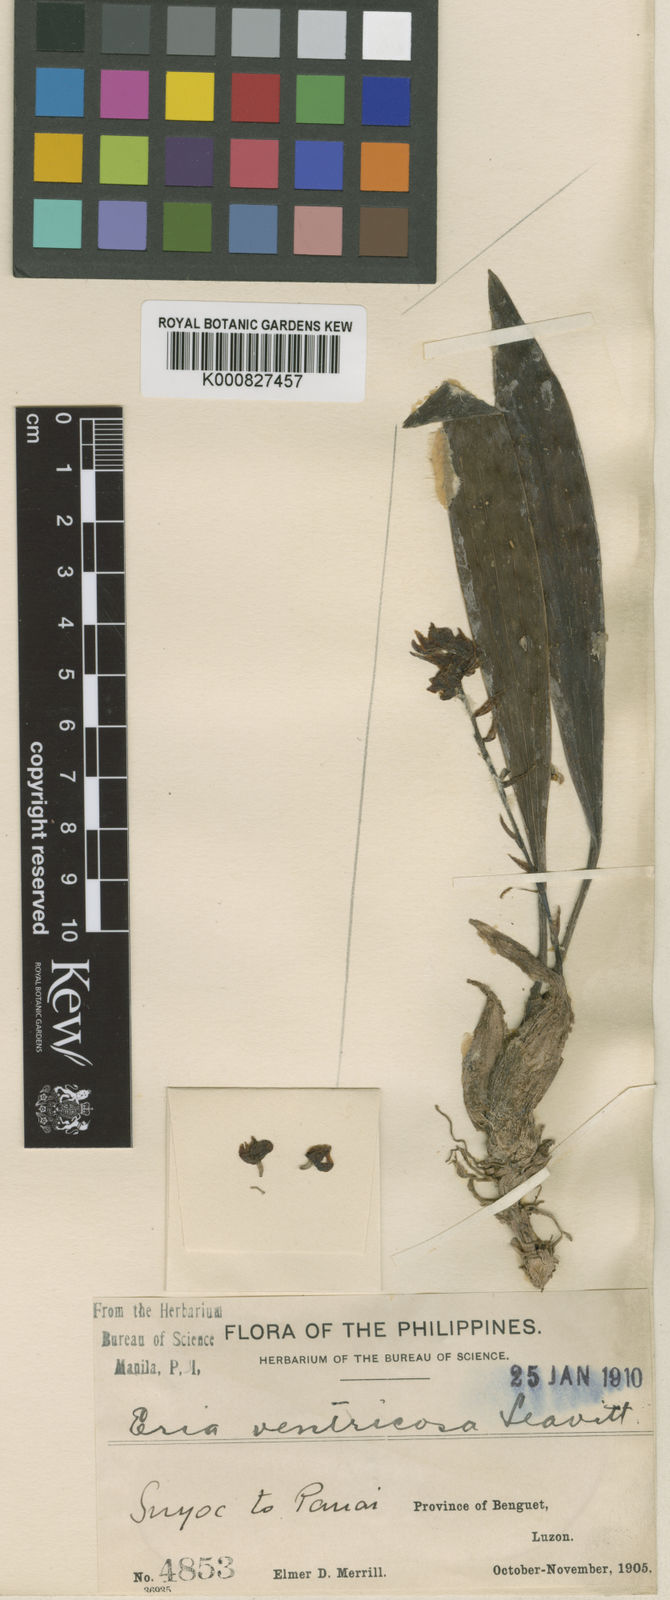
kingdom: Plantae
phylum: Tracheophyta
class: Liliopsida
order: Asparagales
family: Orchidaceae
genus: Bryobium
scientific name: Bryobium ventricosum
